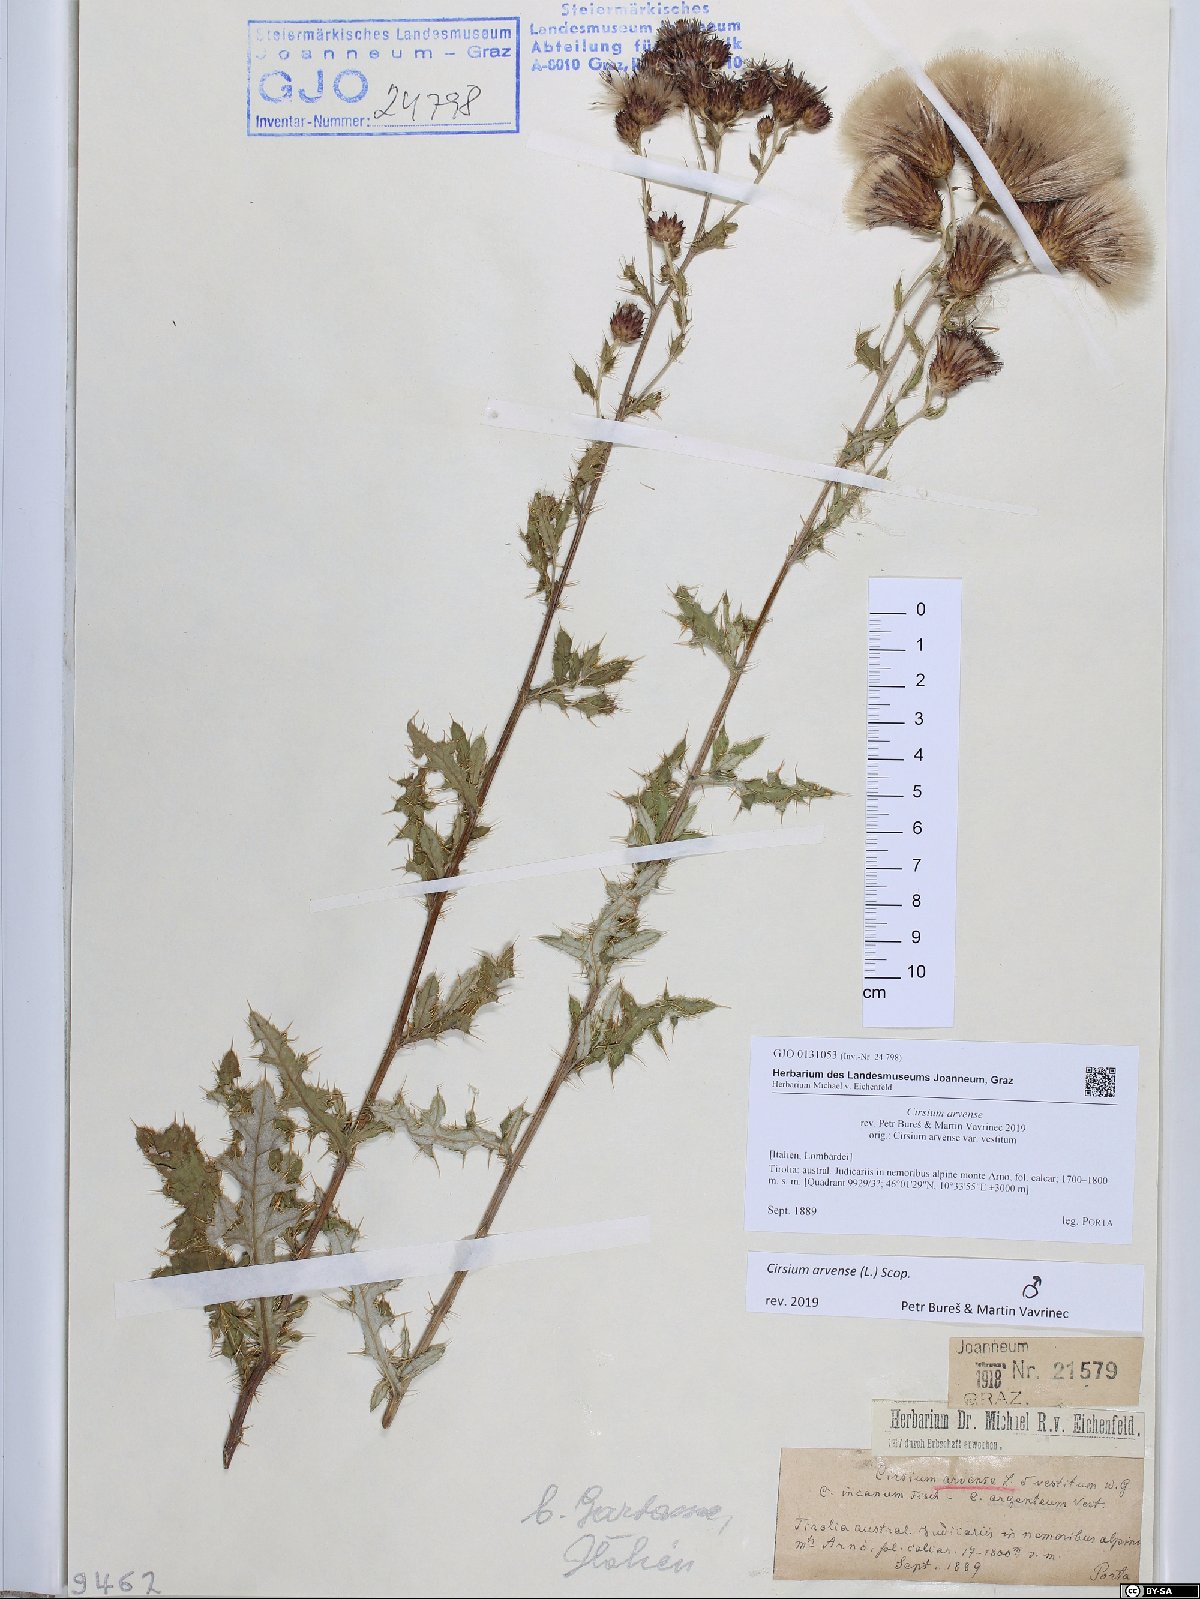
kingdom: Plantae
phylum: Tracheophyta
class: Magnoliopsida
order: Asterales
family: Asteraceae
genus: Cirsium
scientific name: Cirsium arvense
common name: Creeping thistle
